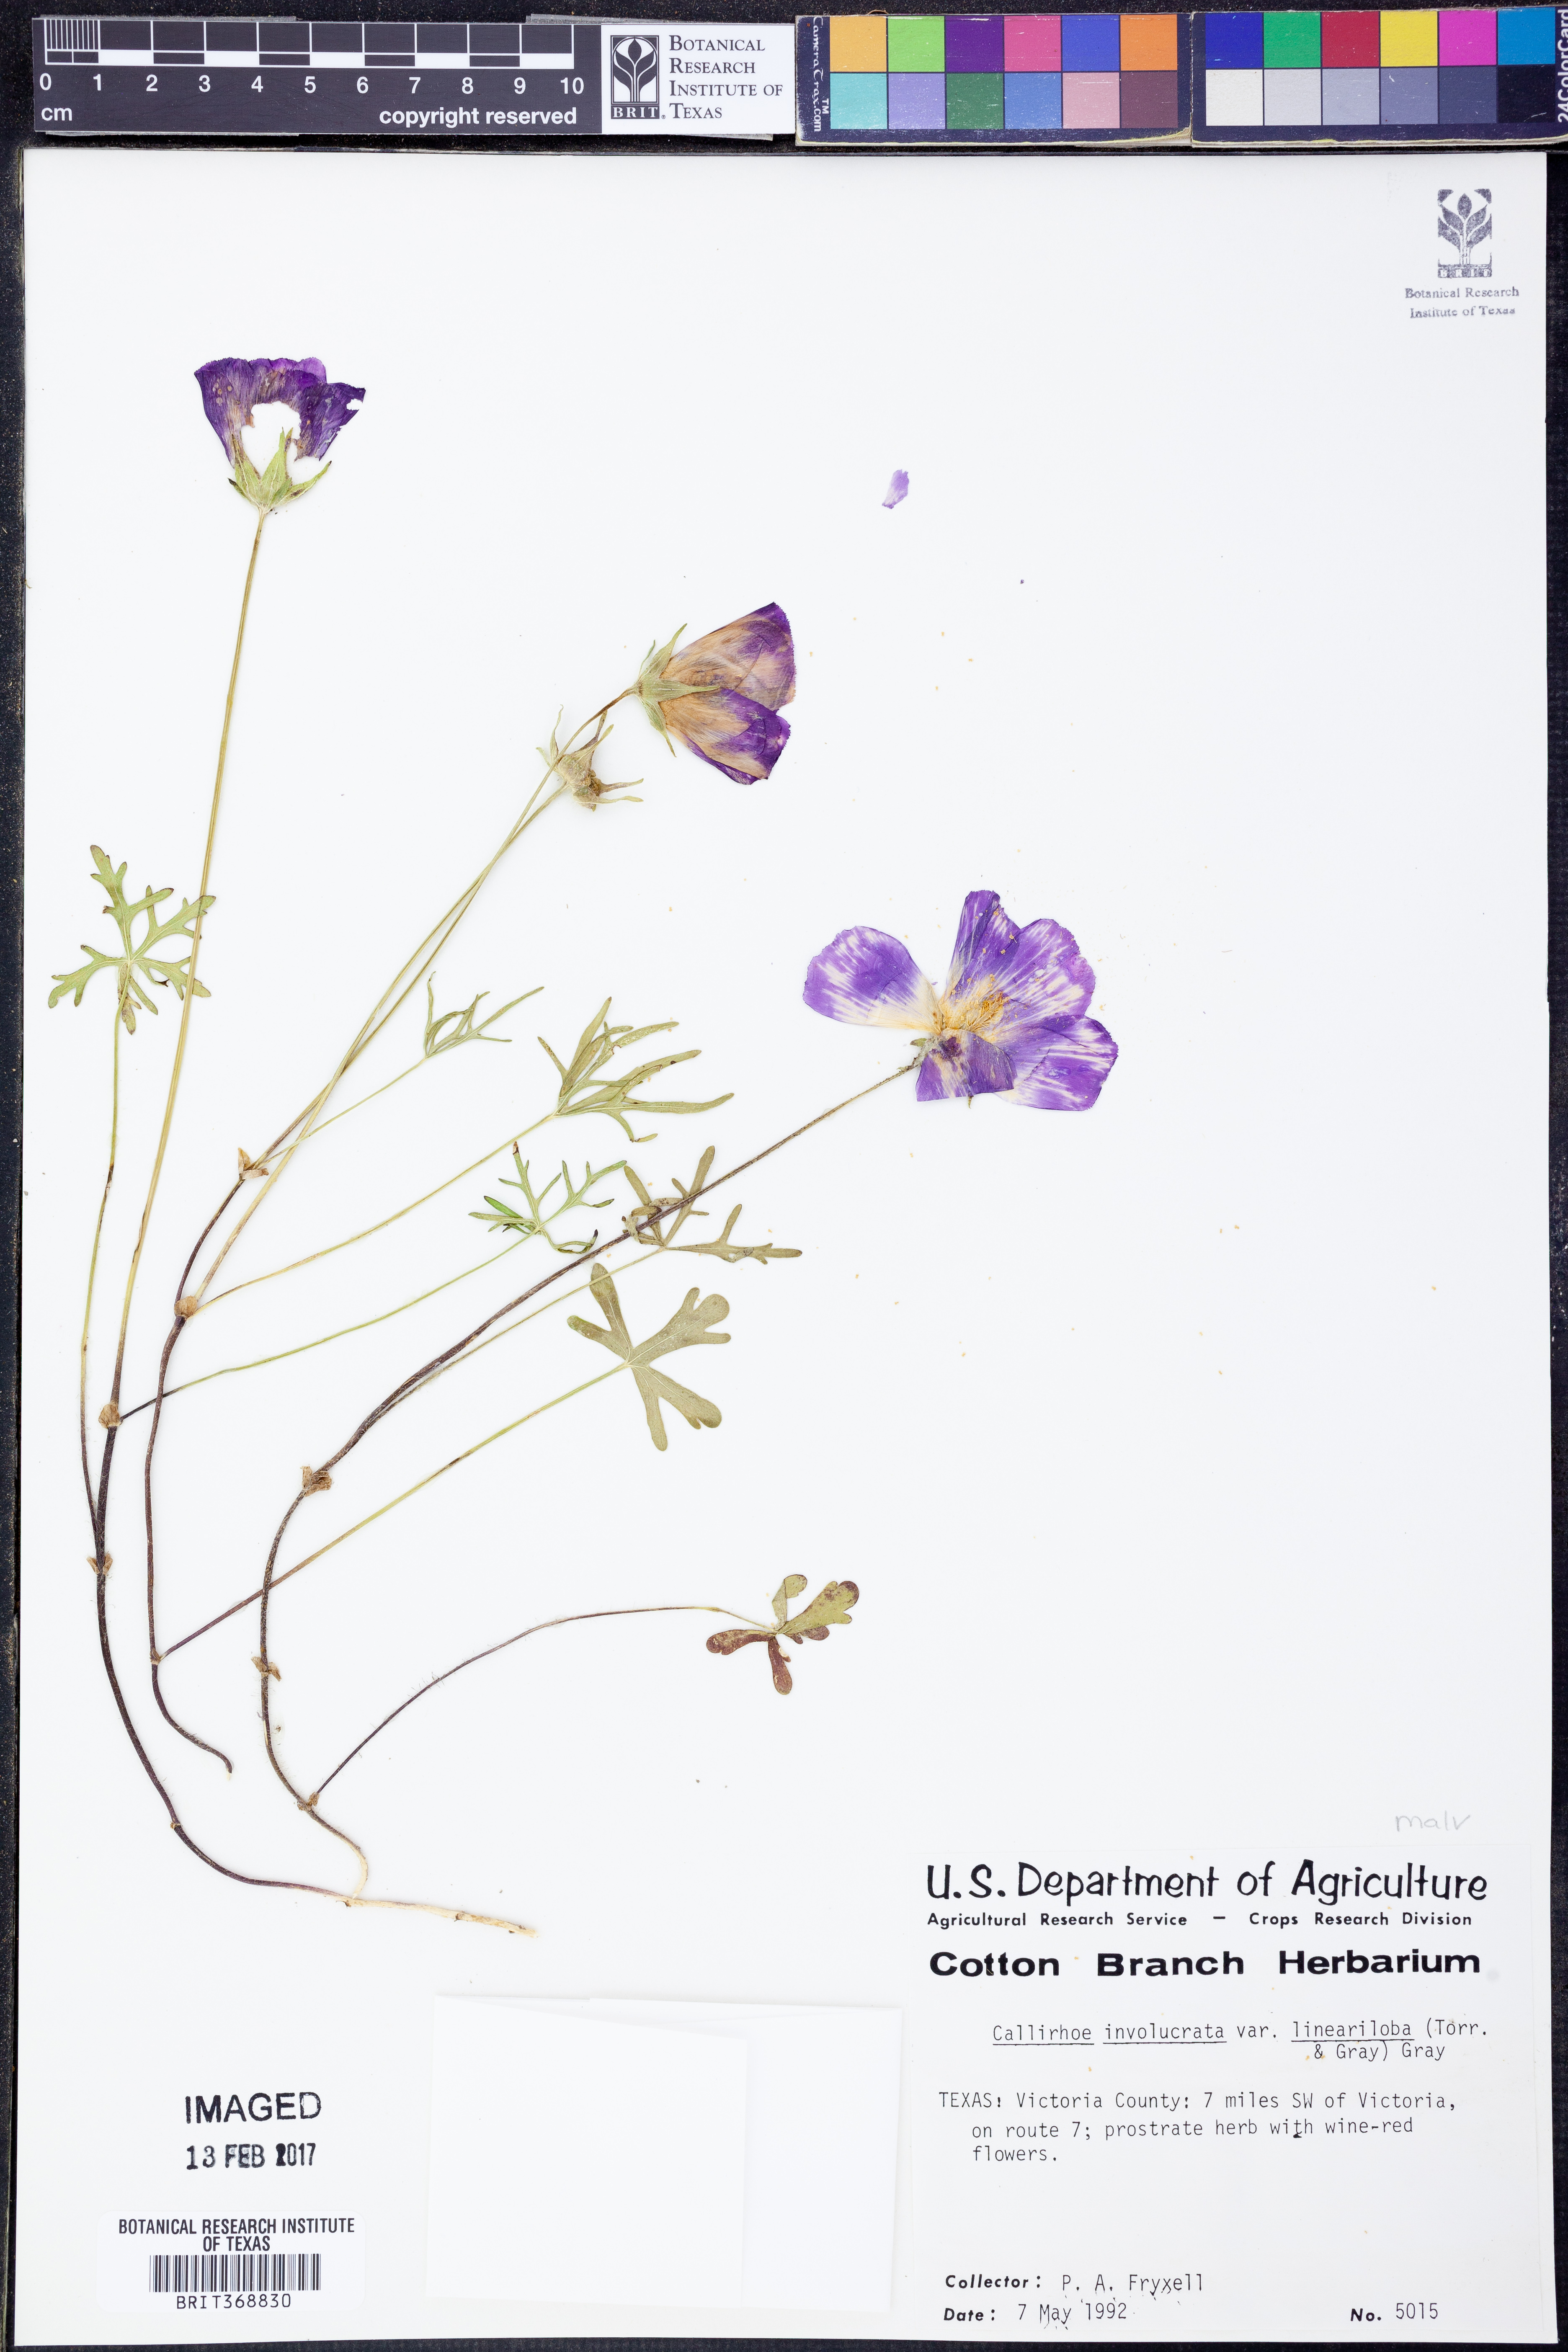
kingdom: Plantae
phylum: Tracheophyta
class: Magnoliopsida
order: Malvales
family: Malvaceae
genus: Callirhoe
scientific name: Callirhoe involucrata
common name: Purple poppy-mallow
